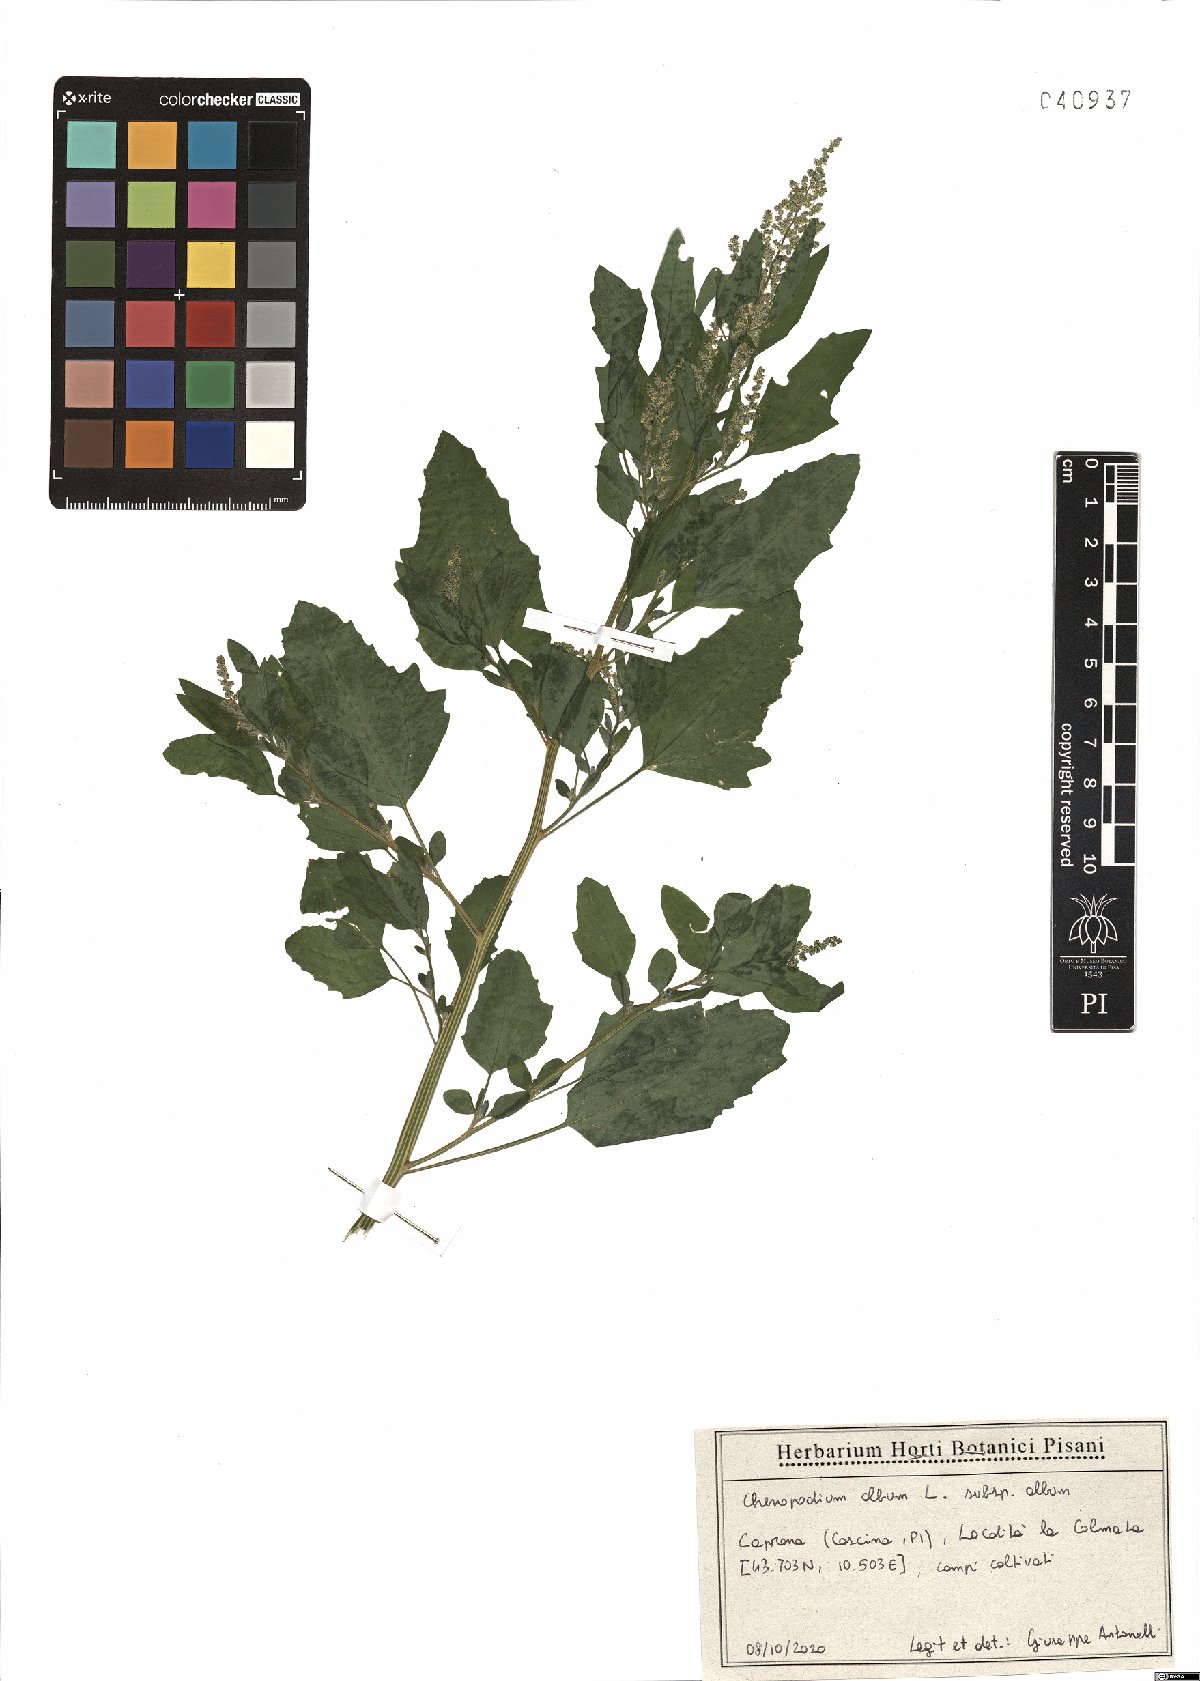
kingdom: Plantae
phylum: Tracheophyta
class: Magnoliopsida
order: Caryophyllales
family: Amaranthaceae
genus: Chenopodium
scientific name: Chenopodium album
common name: Fat-hen
